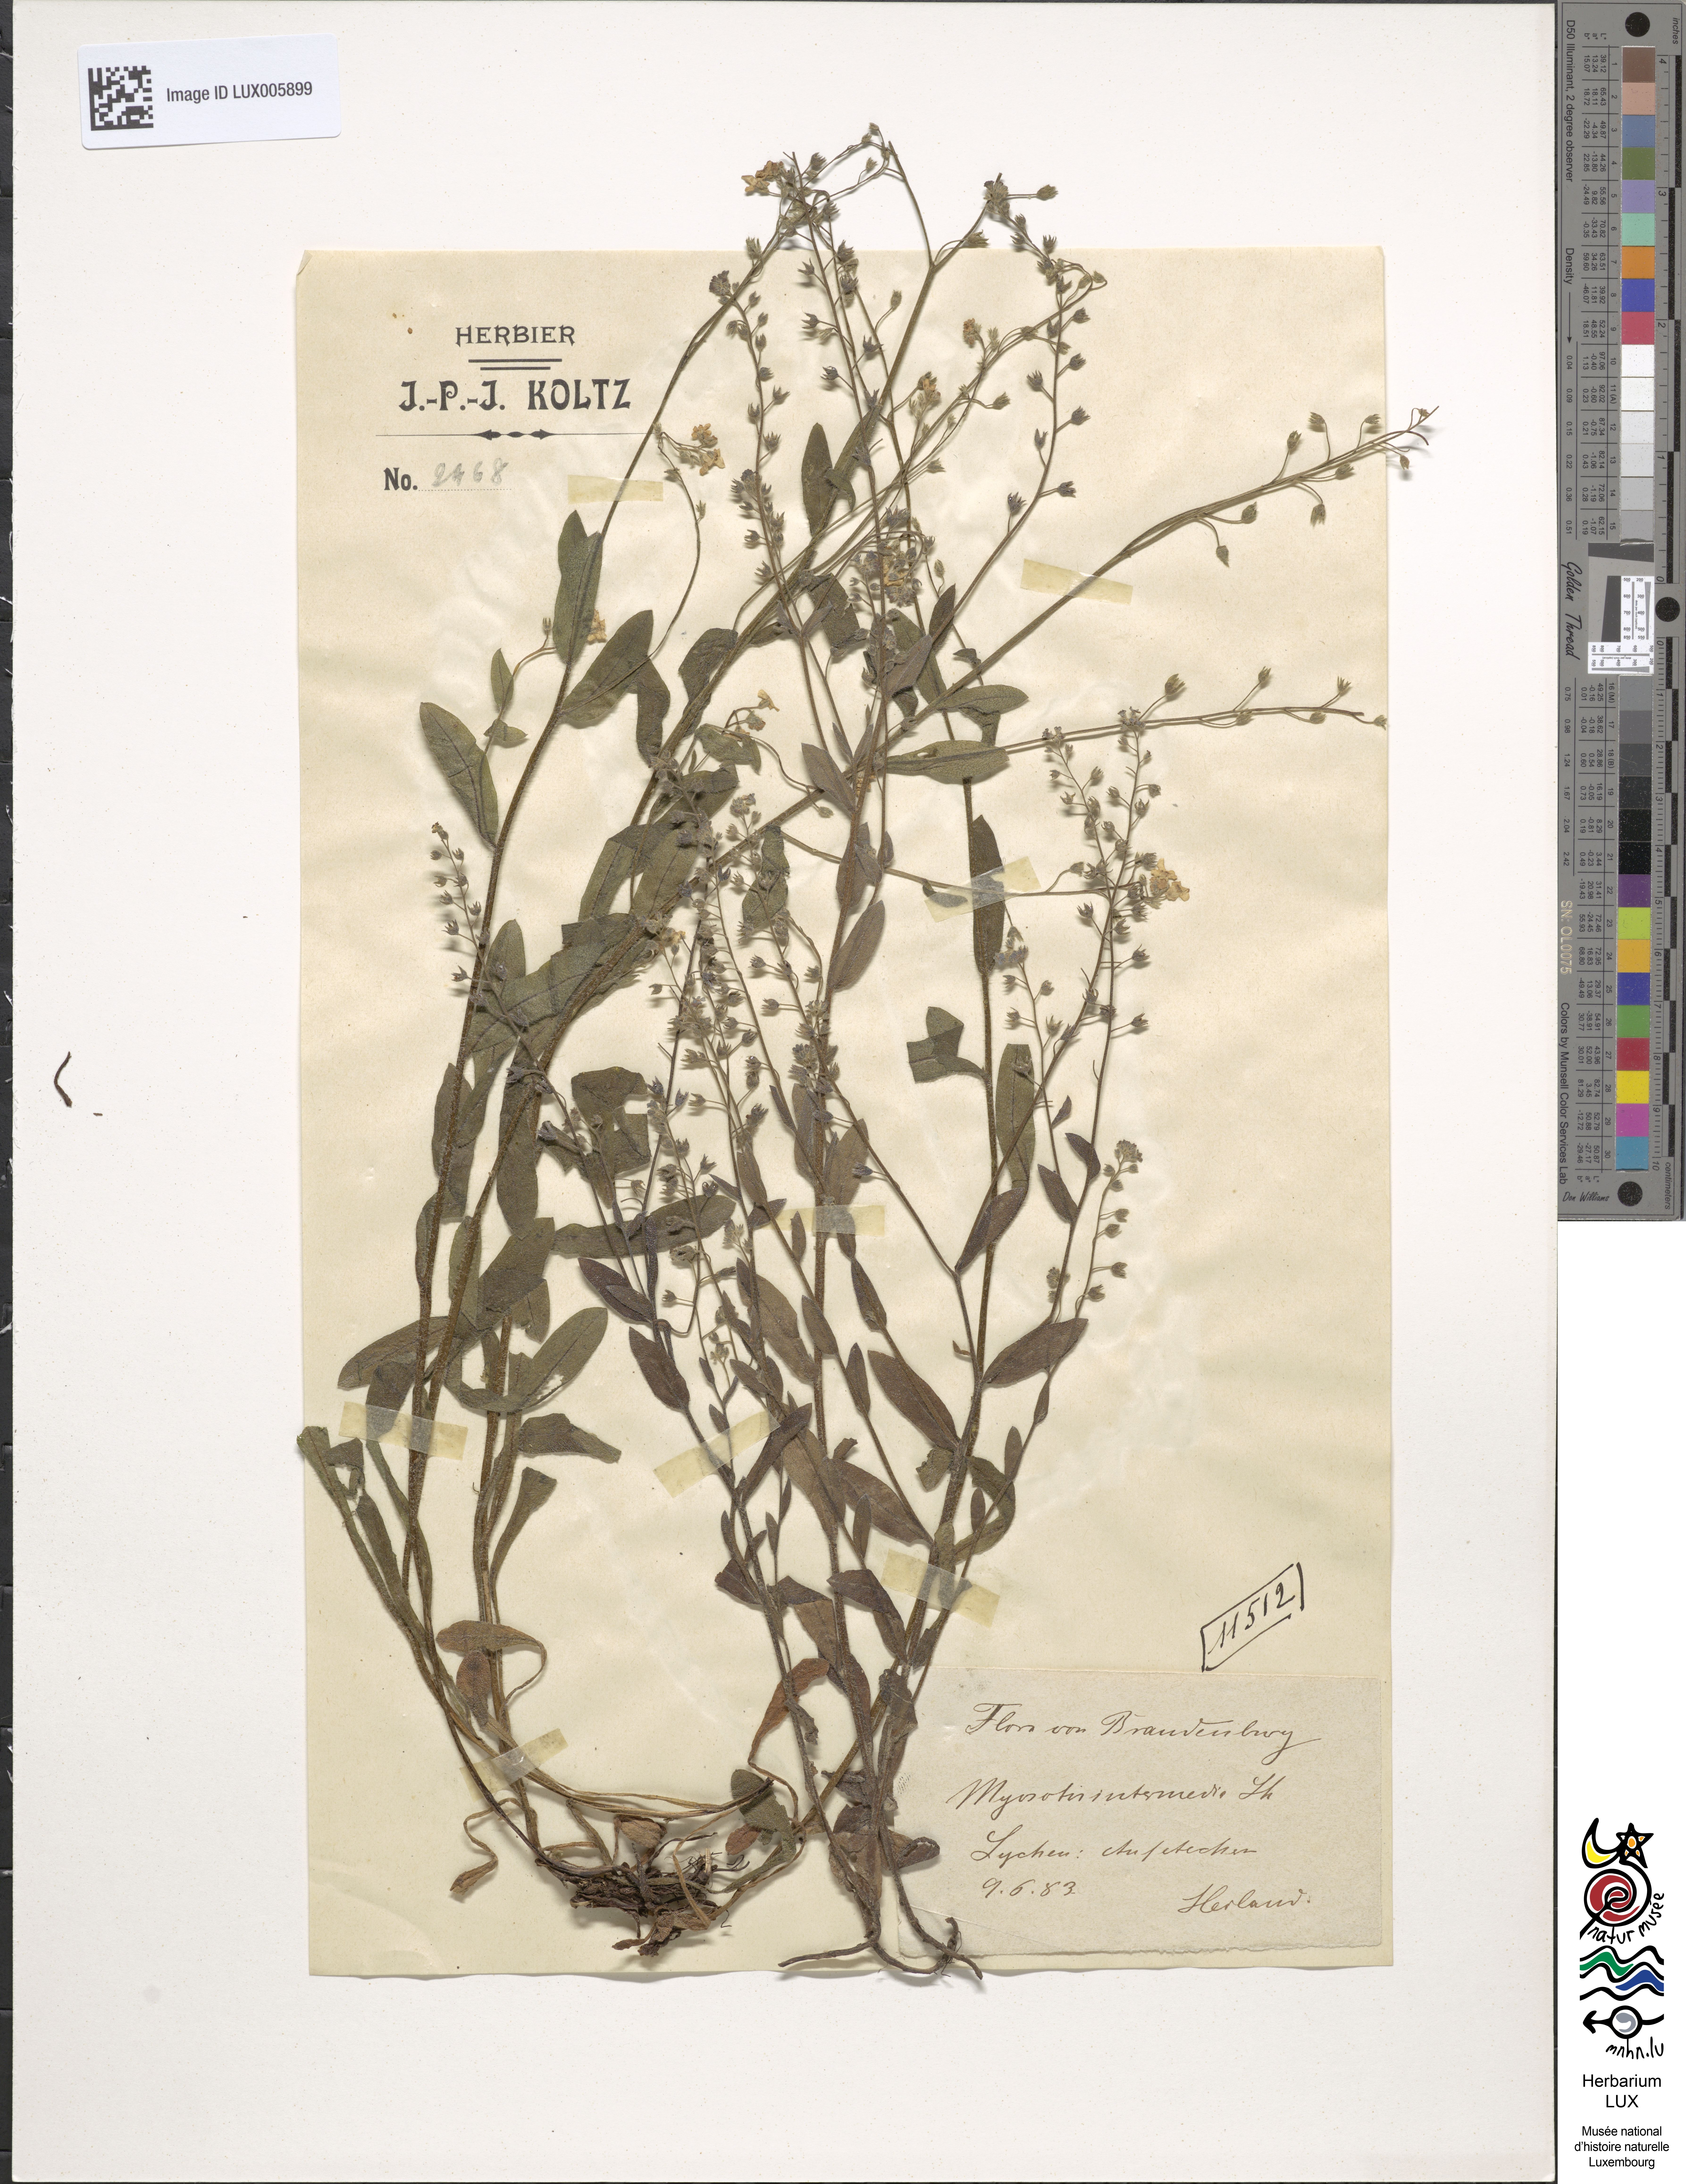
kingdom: Plantae
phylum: Tracheophyta
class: Magnoliopsida
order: Boraginales
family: Boraginaceae
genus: Myosotis
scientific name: Myosotis arvensis
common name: Field forget-me-not
